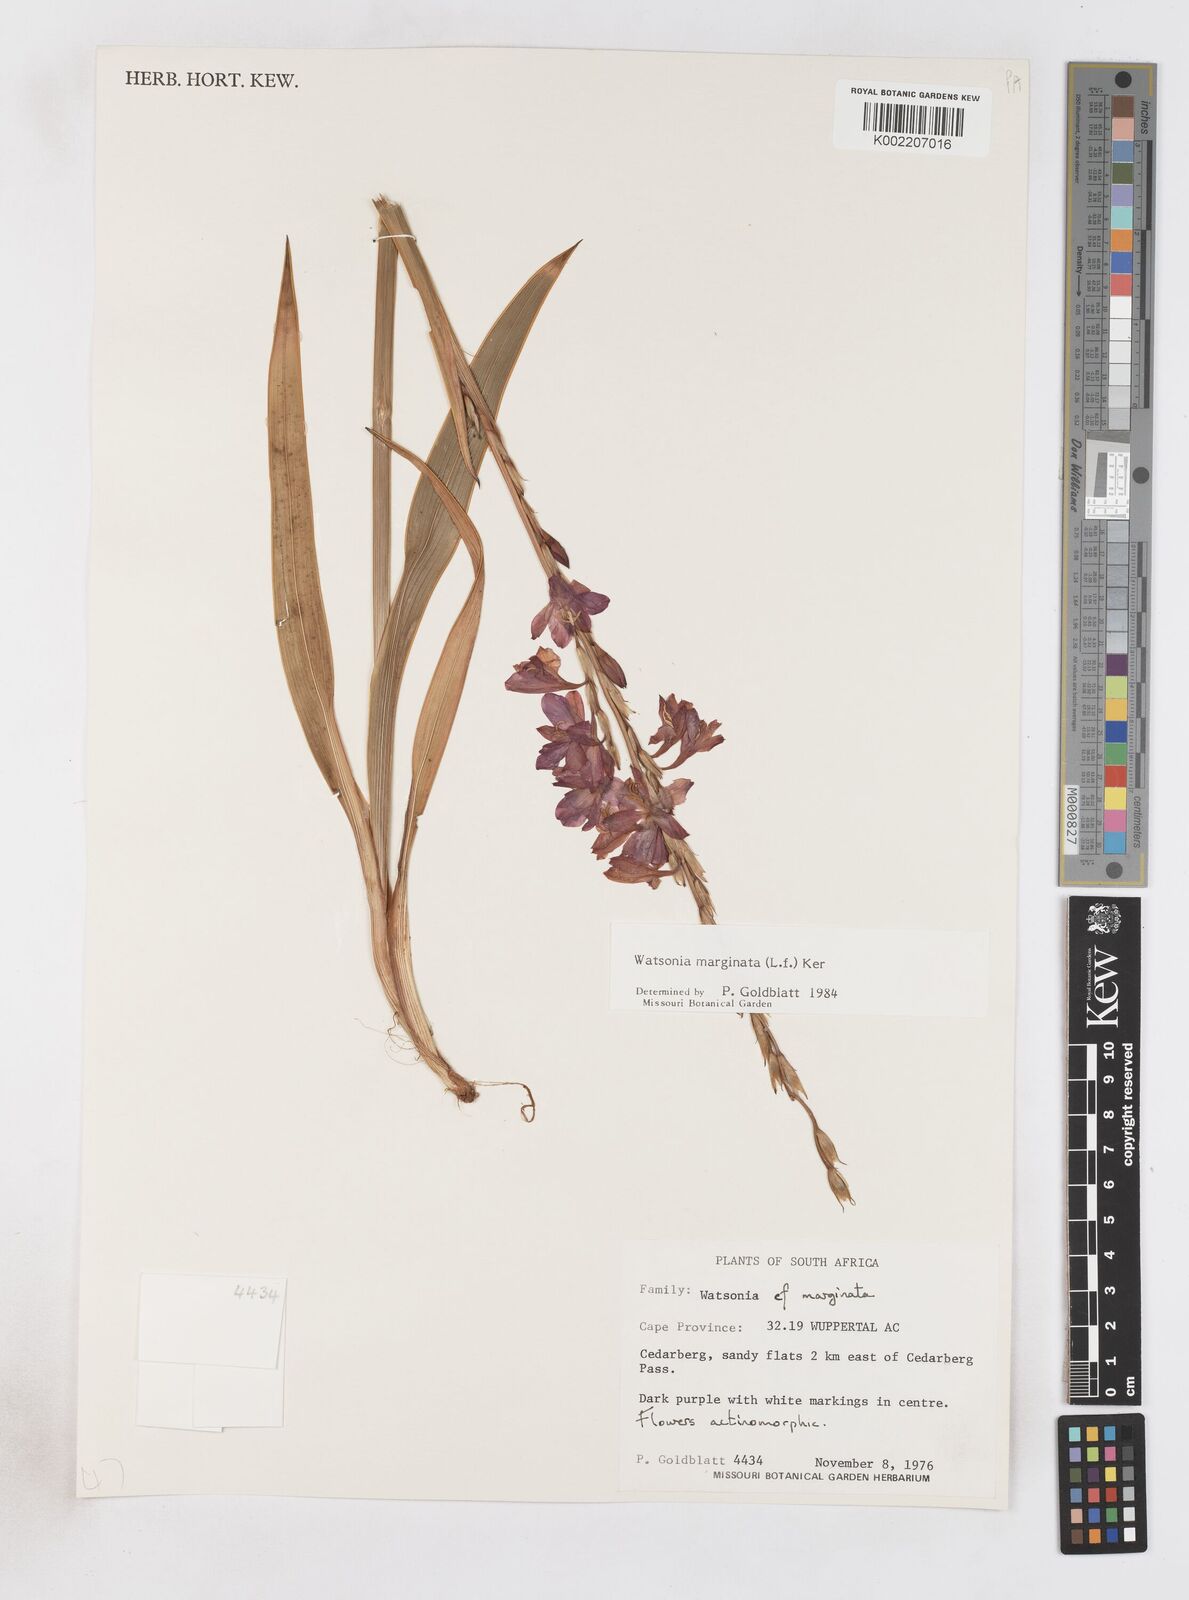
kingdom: Plantae
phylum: Tracheophyta
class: Liliopsida
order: Asparagales
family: Iridaceae
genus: Watsonia
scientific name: Watsonia marginata
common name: Fragrant bugle-lily
